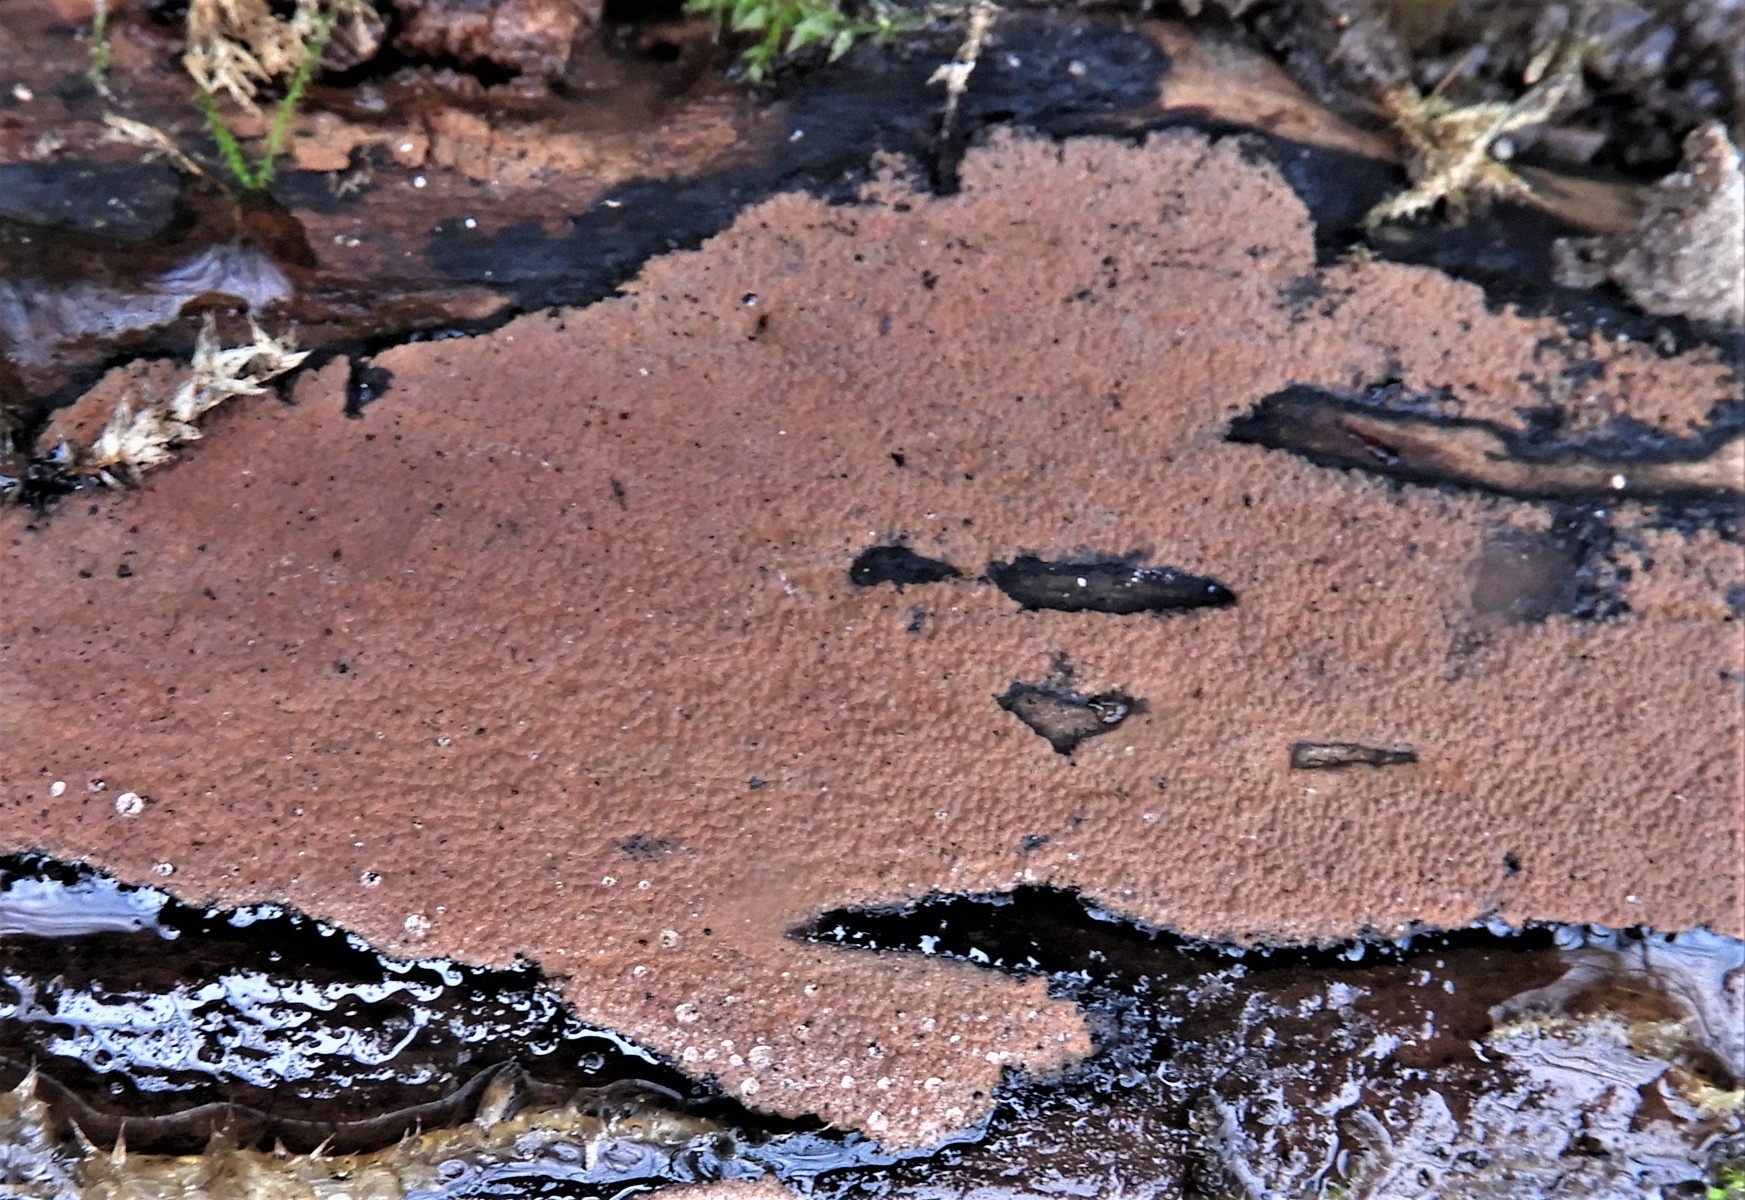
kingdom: Fungi
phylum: Ascomycota
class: Sordariomycetes
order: Xylariales
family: Hypoxylaceae
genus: Hypoxylon
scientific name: Hypoxylon petriniae
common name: nedsænket kulbær
